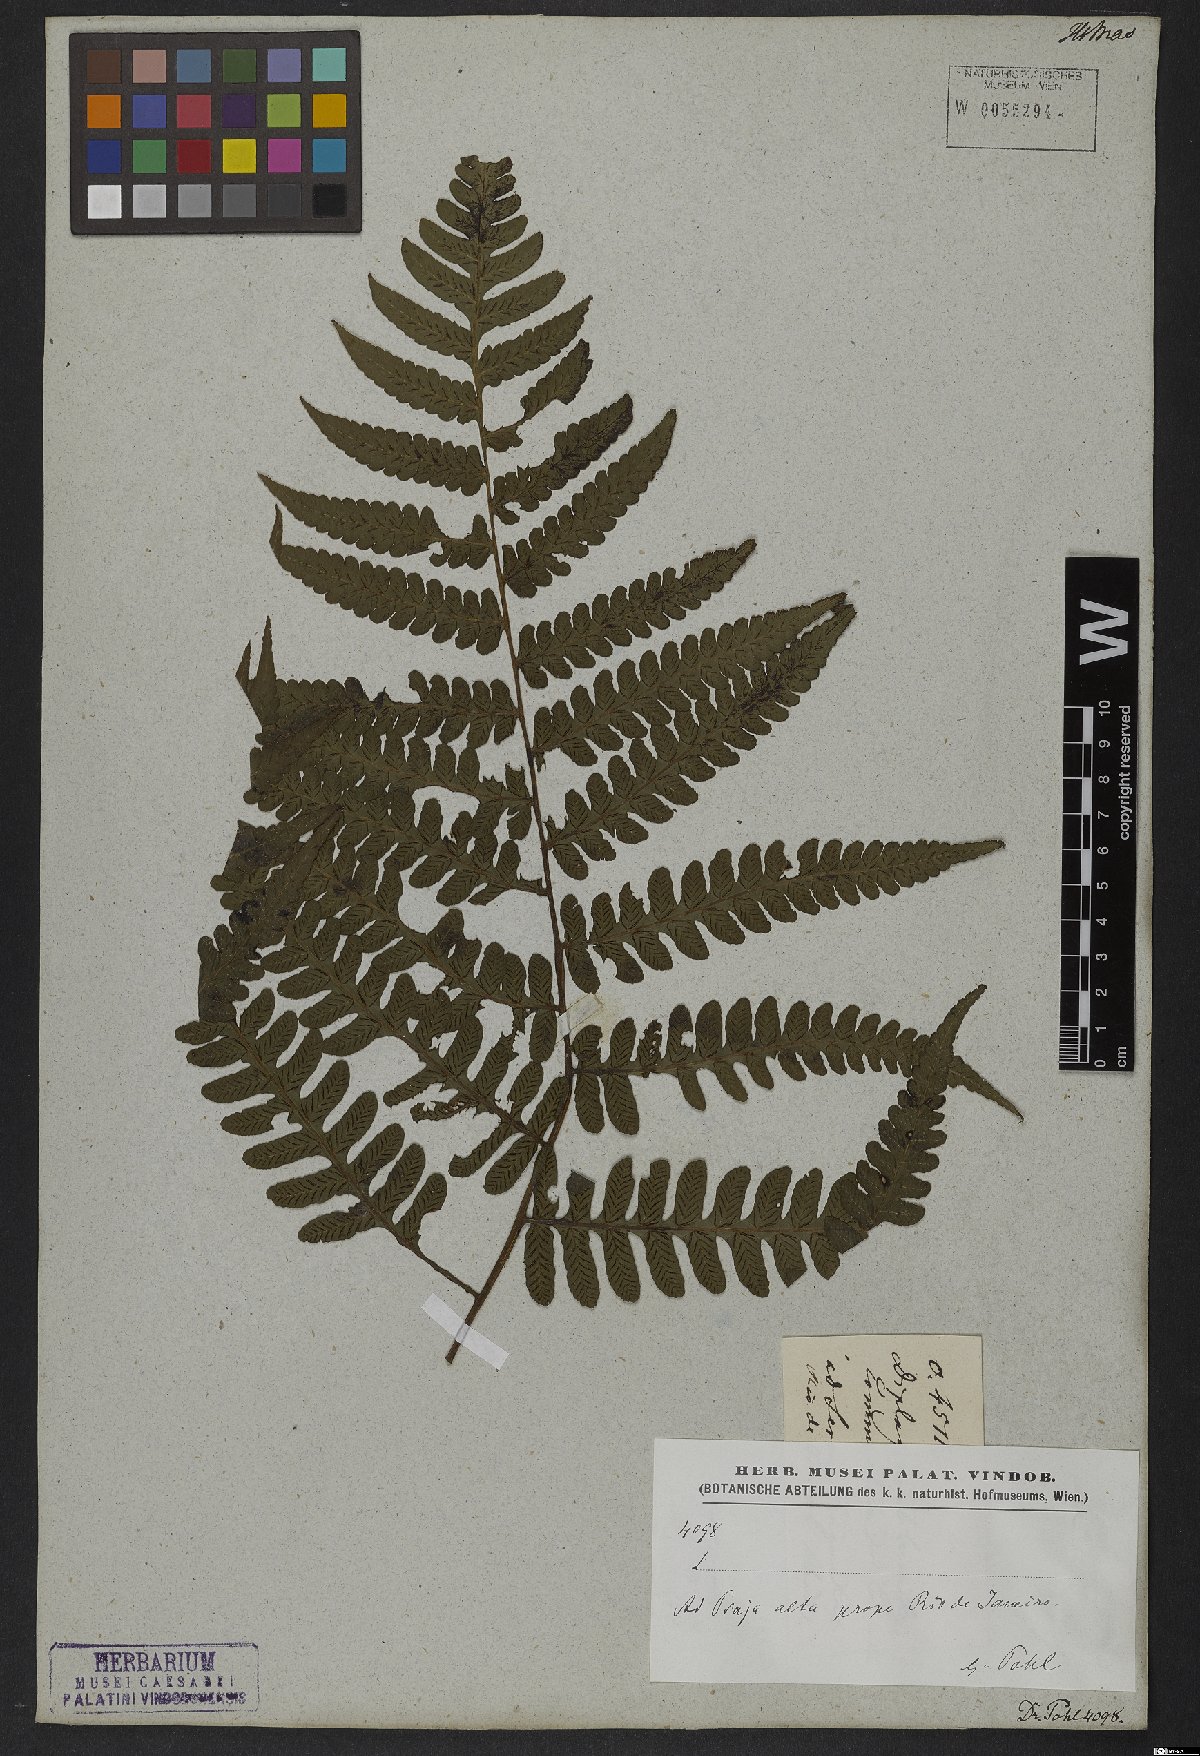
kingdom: Plantae
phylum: Tracheophyta
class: Polypodiopsida
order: Polypodiales
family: Athyriaceae
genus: Diplazium
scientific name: Diplazium
